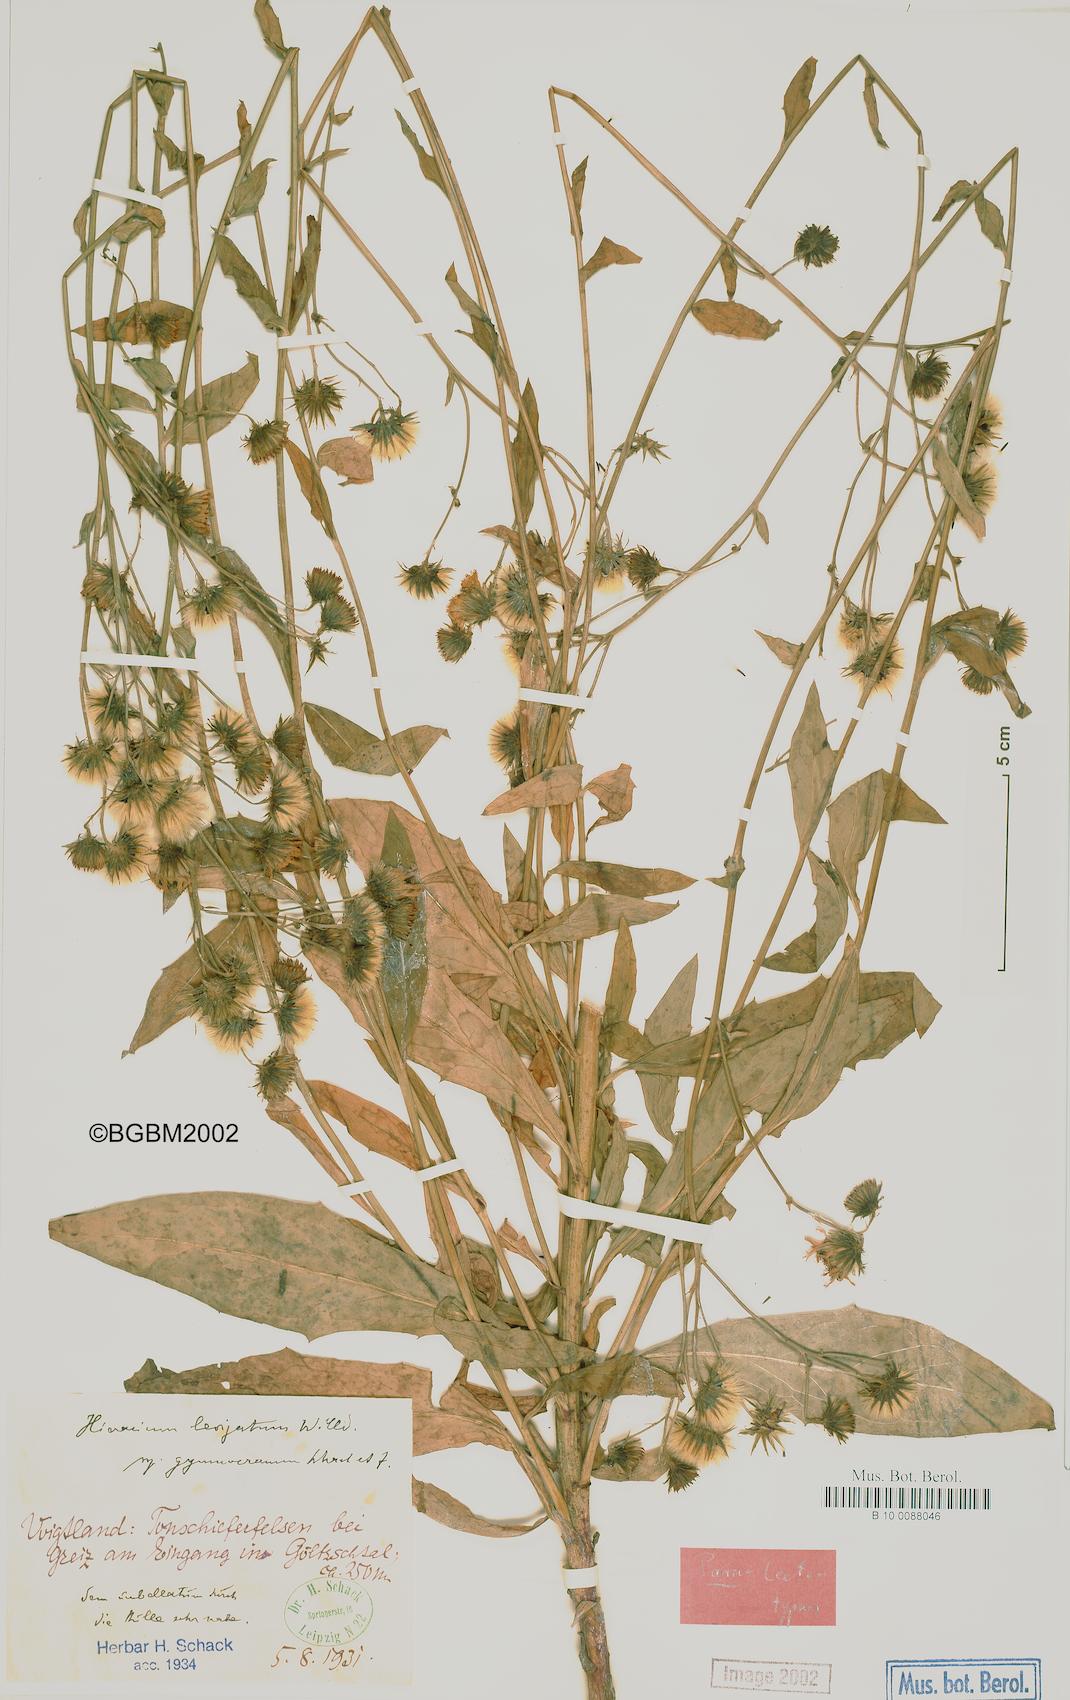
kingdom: Plantae
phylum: Tracheophyta
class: Magnoliopsida
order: Asterales
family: Asteraceae
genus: Hieracium
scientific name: Hieracium laevigatum
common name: Smooth hawkweed
